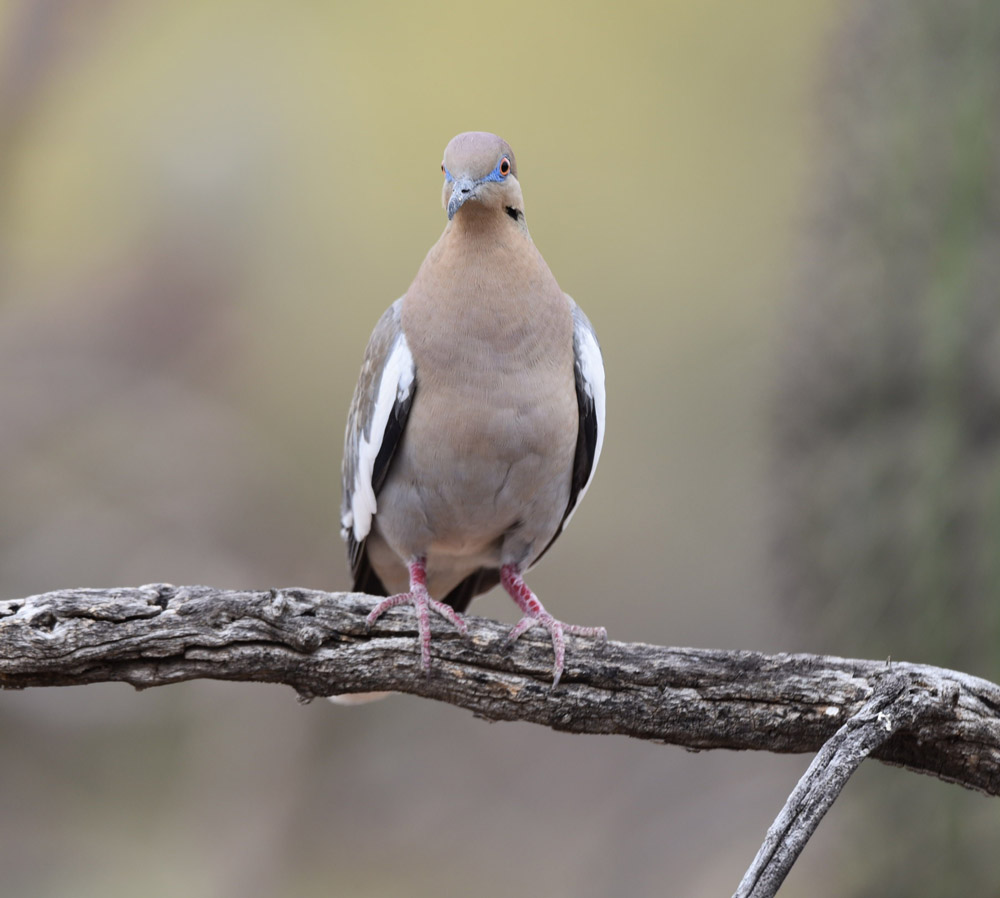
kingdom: Animalia
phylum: Chordata
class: Aves
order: Columbiformes
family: Columbidae
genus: Zenaida
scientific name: Zenaida asiatica
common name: White-winged dove
